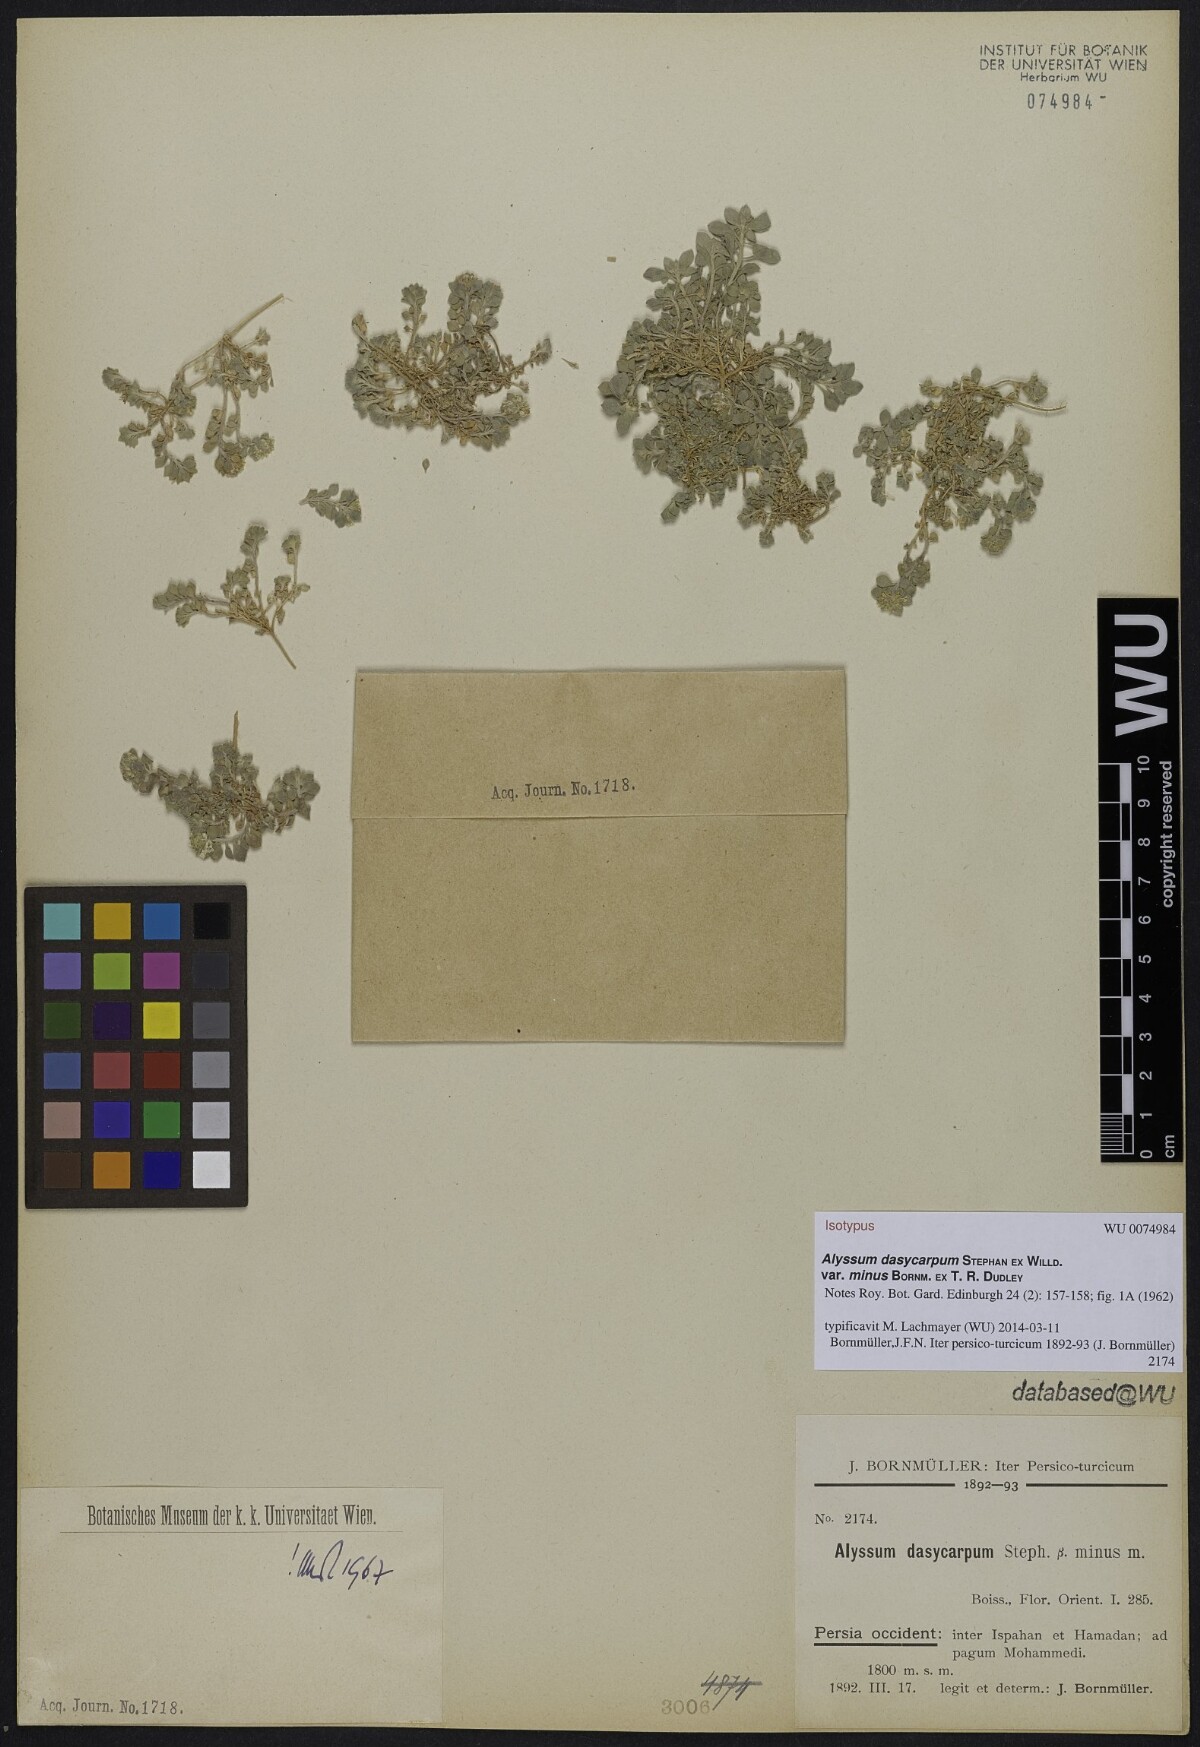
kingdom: Plantae
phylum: Tracheophyta
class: Magnoliopsida
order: Brassicales
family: Brassicaceae
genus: Alyssum
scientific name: Alyssum dasycarpum
